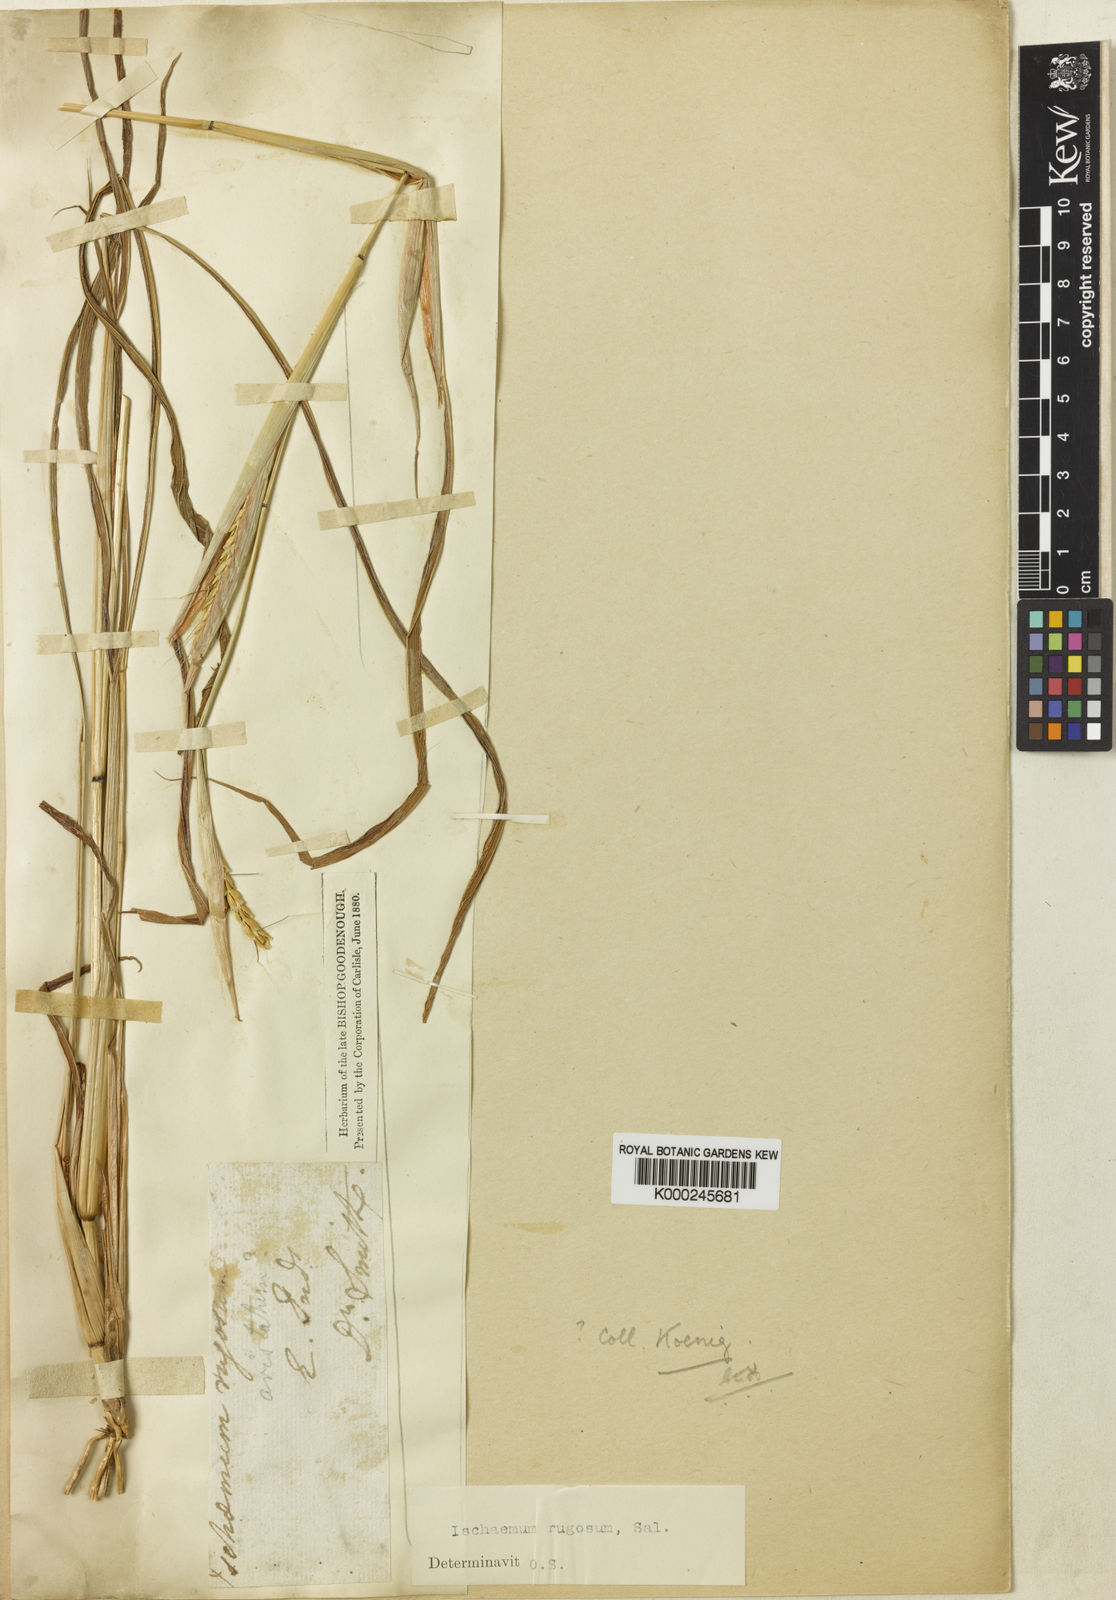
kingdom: Plantae
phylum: Tracheophyta
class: Liliopsida
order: Poales
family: Poaceae
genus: Ischaemum
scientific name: Ischaemum rugosum
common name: Saramatta grass
